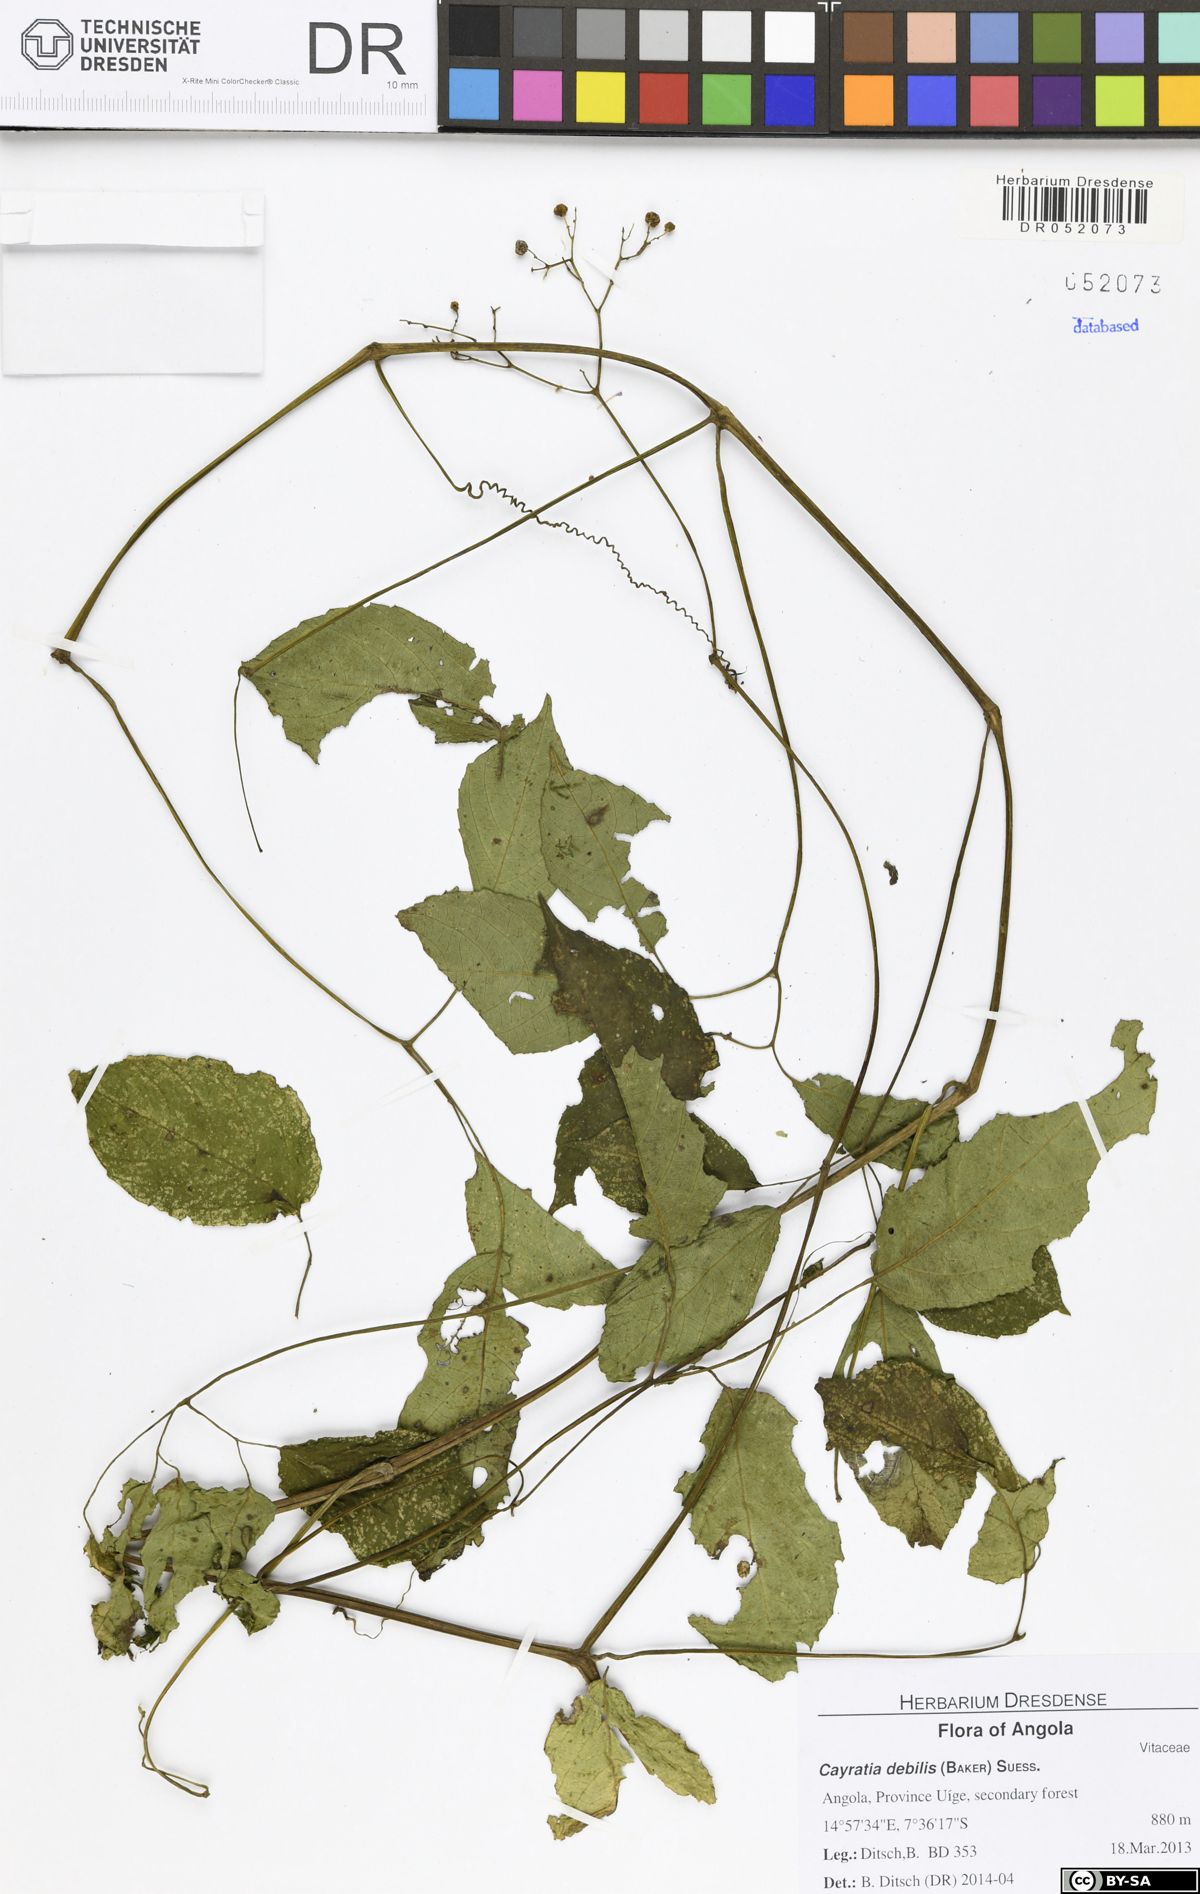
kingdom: Plantae
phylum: Tracheophyta
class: Magnoliopsida
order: Vitales
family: Vitaceae
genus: Afrocayratia
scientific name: Afrocayratia debilis
